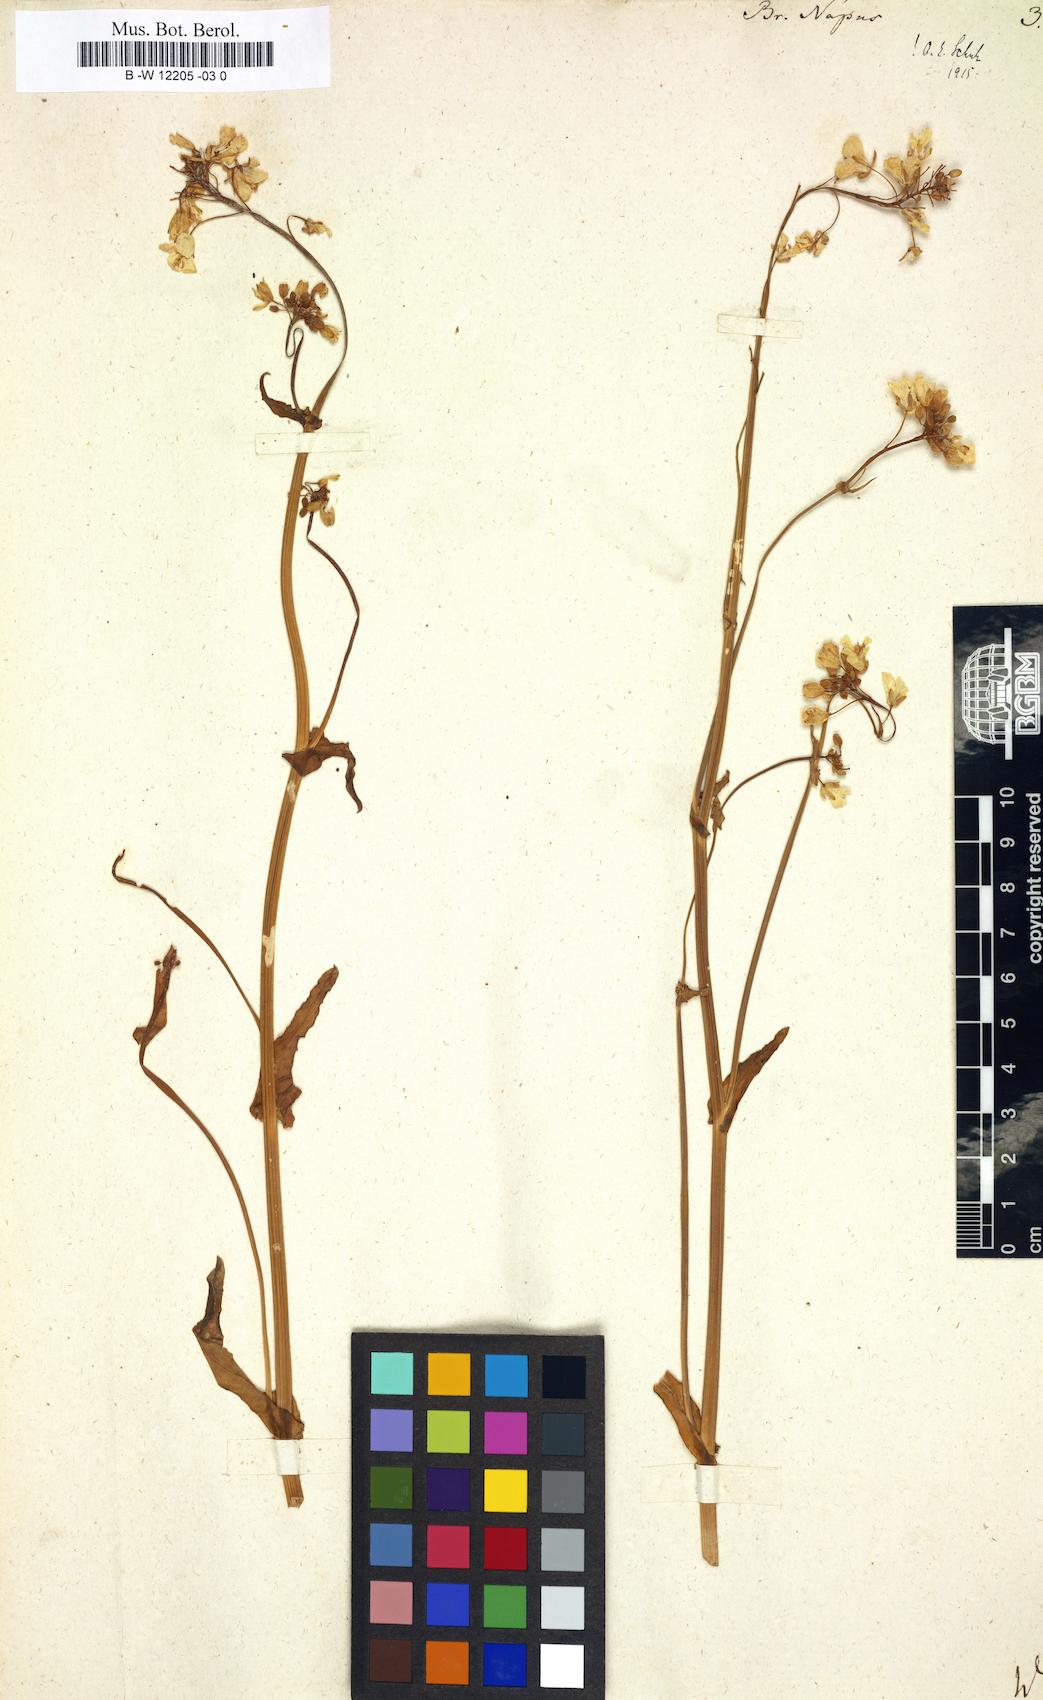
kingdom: Plantae
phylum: Tracheophyta
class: Magnoliopsida
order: Brassicales
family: Brassicaceae
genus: Brassica
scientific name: Brassica napus
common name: Rape
